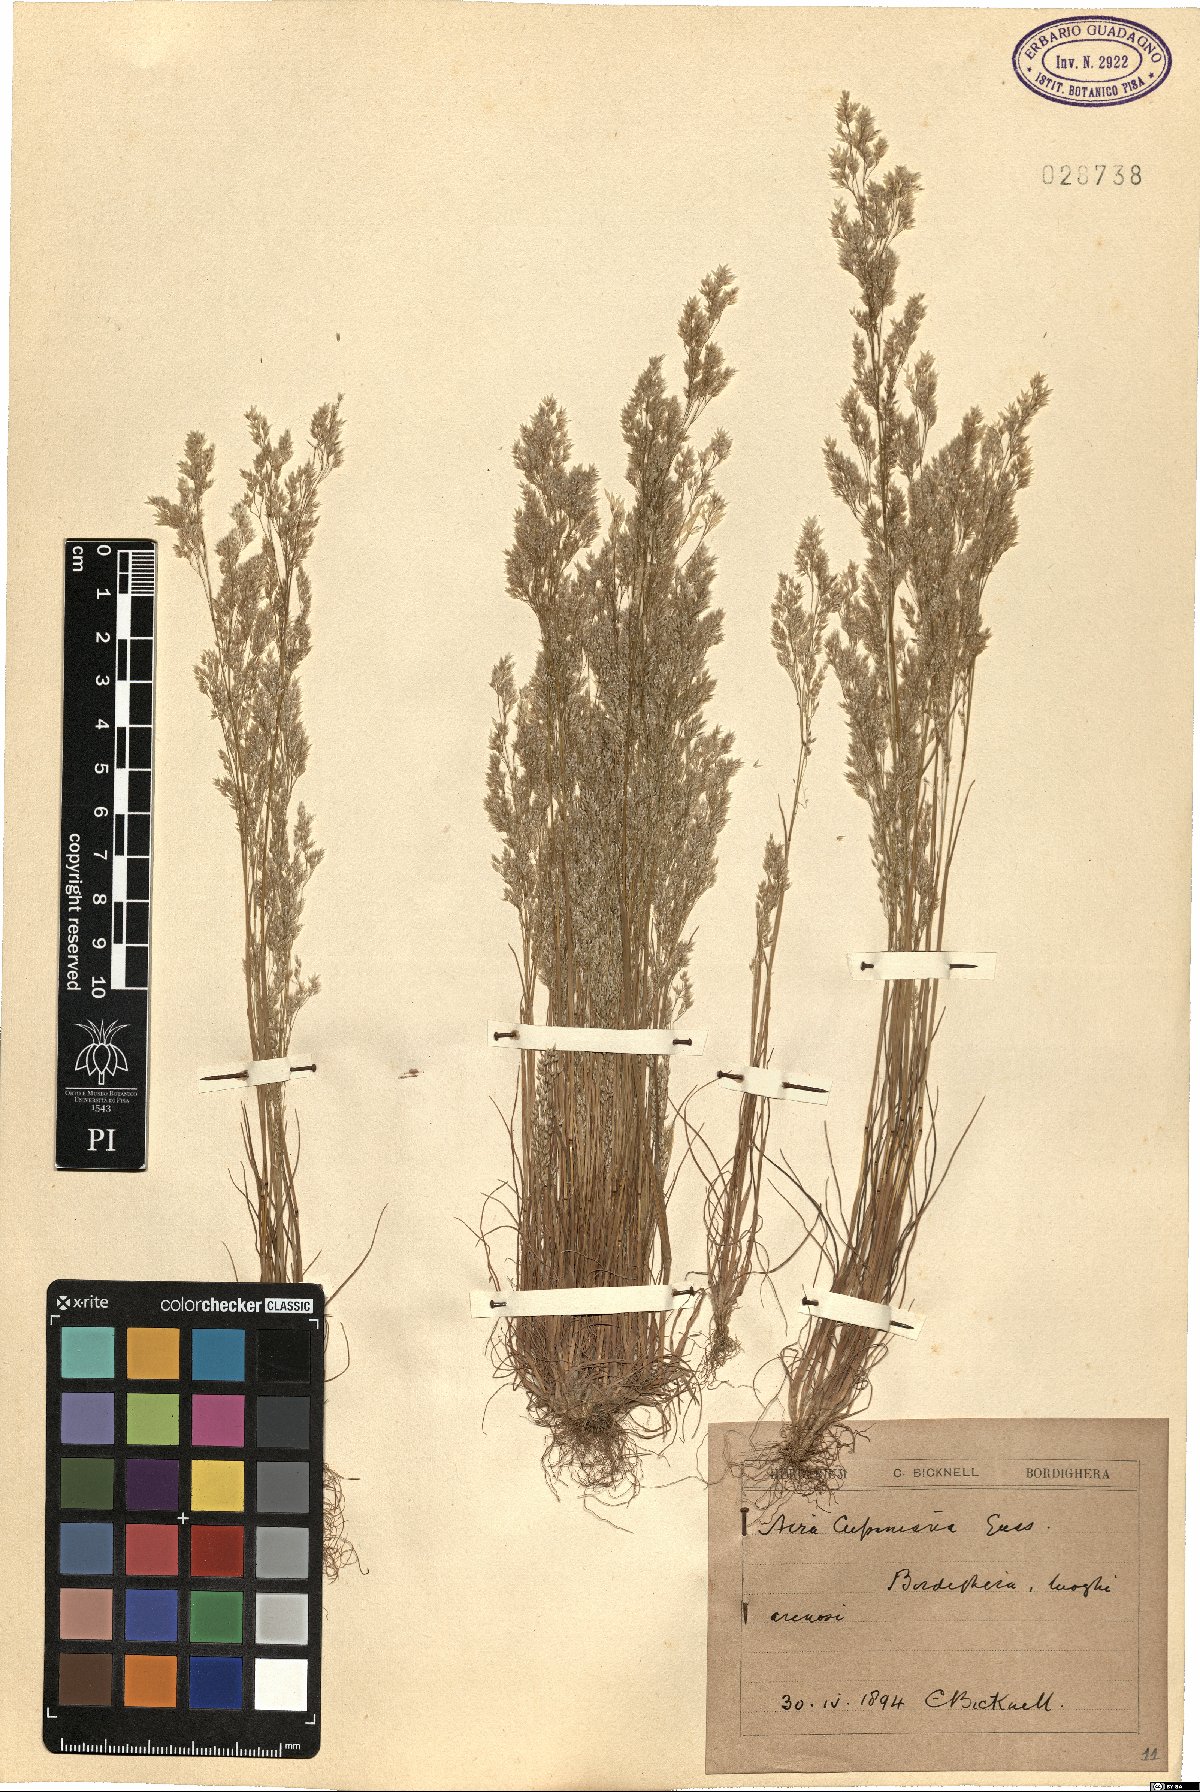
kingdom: Plantae
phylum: Tracheophyta
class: Liliopsida
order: Poales
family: Poaceae
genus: Aira
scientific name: Aira cupaniana
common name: Silver hairgrass
